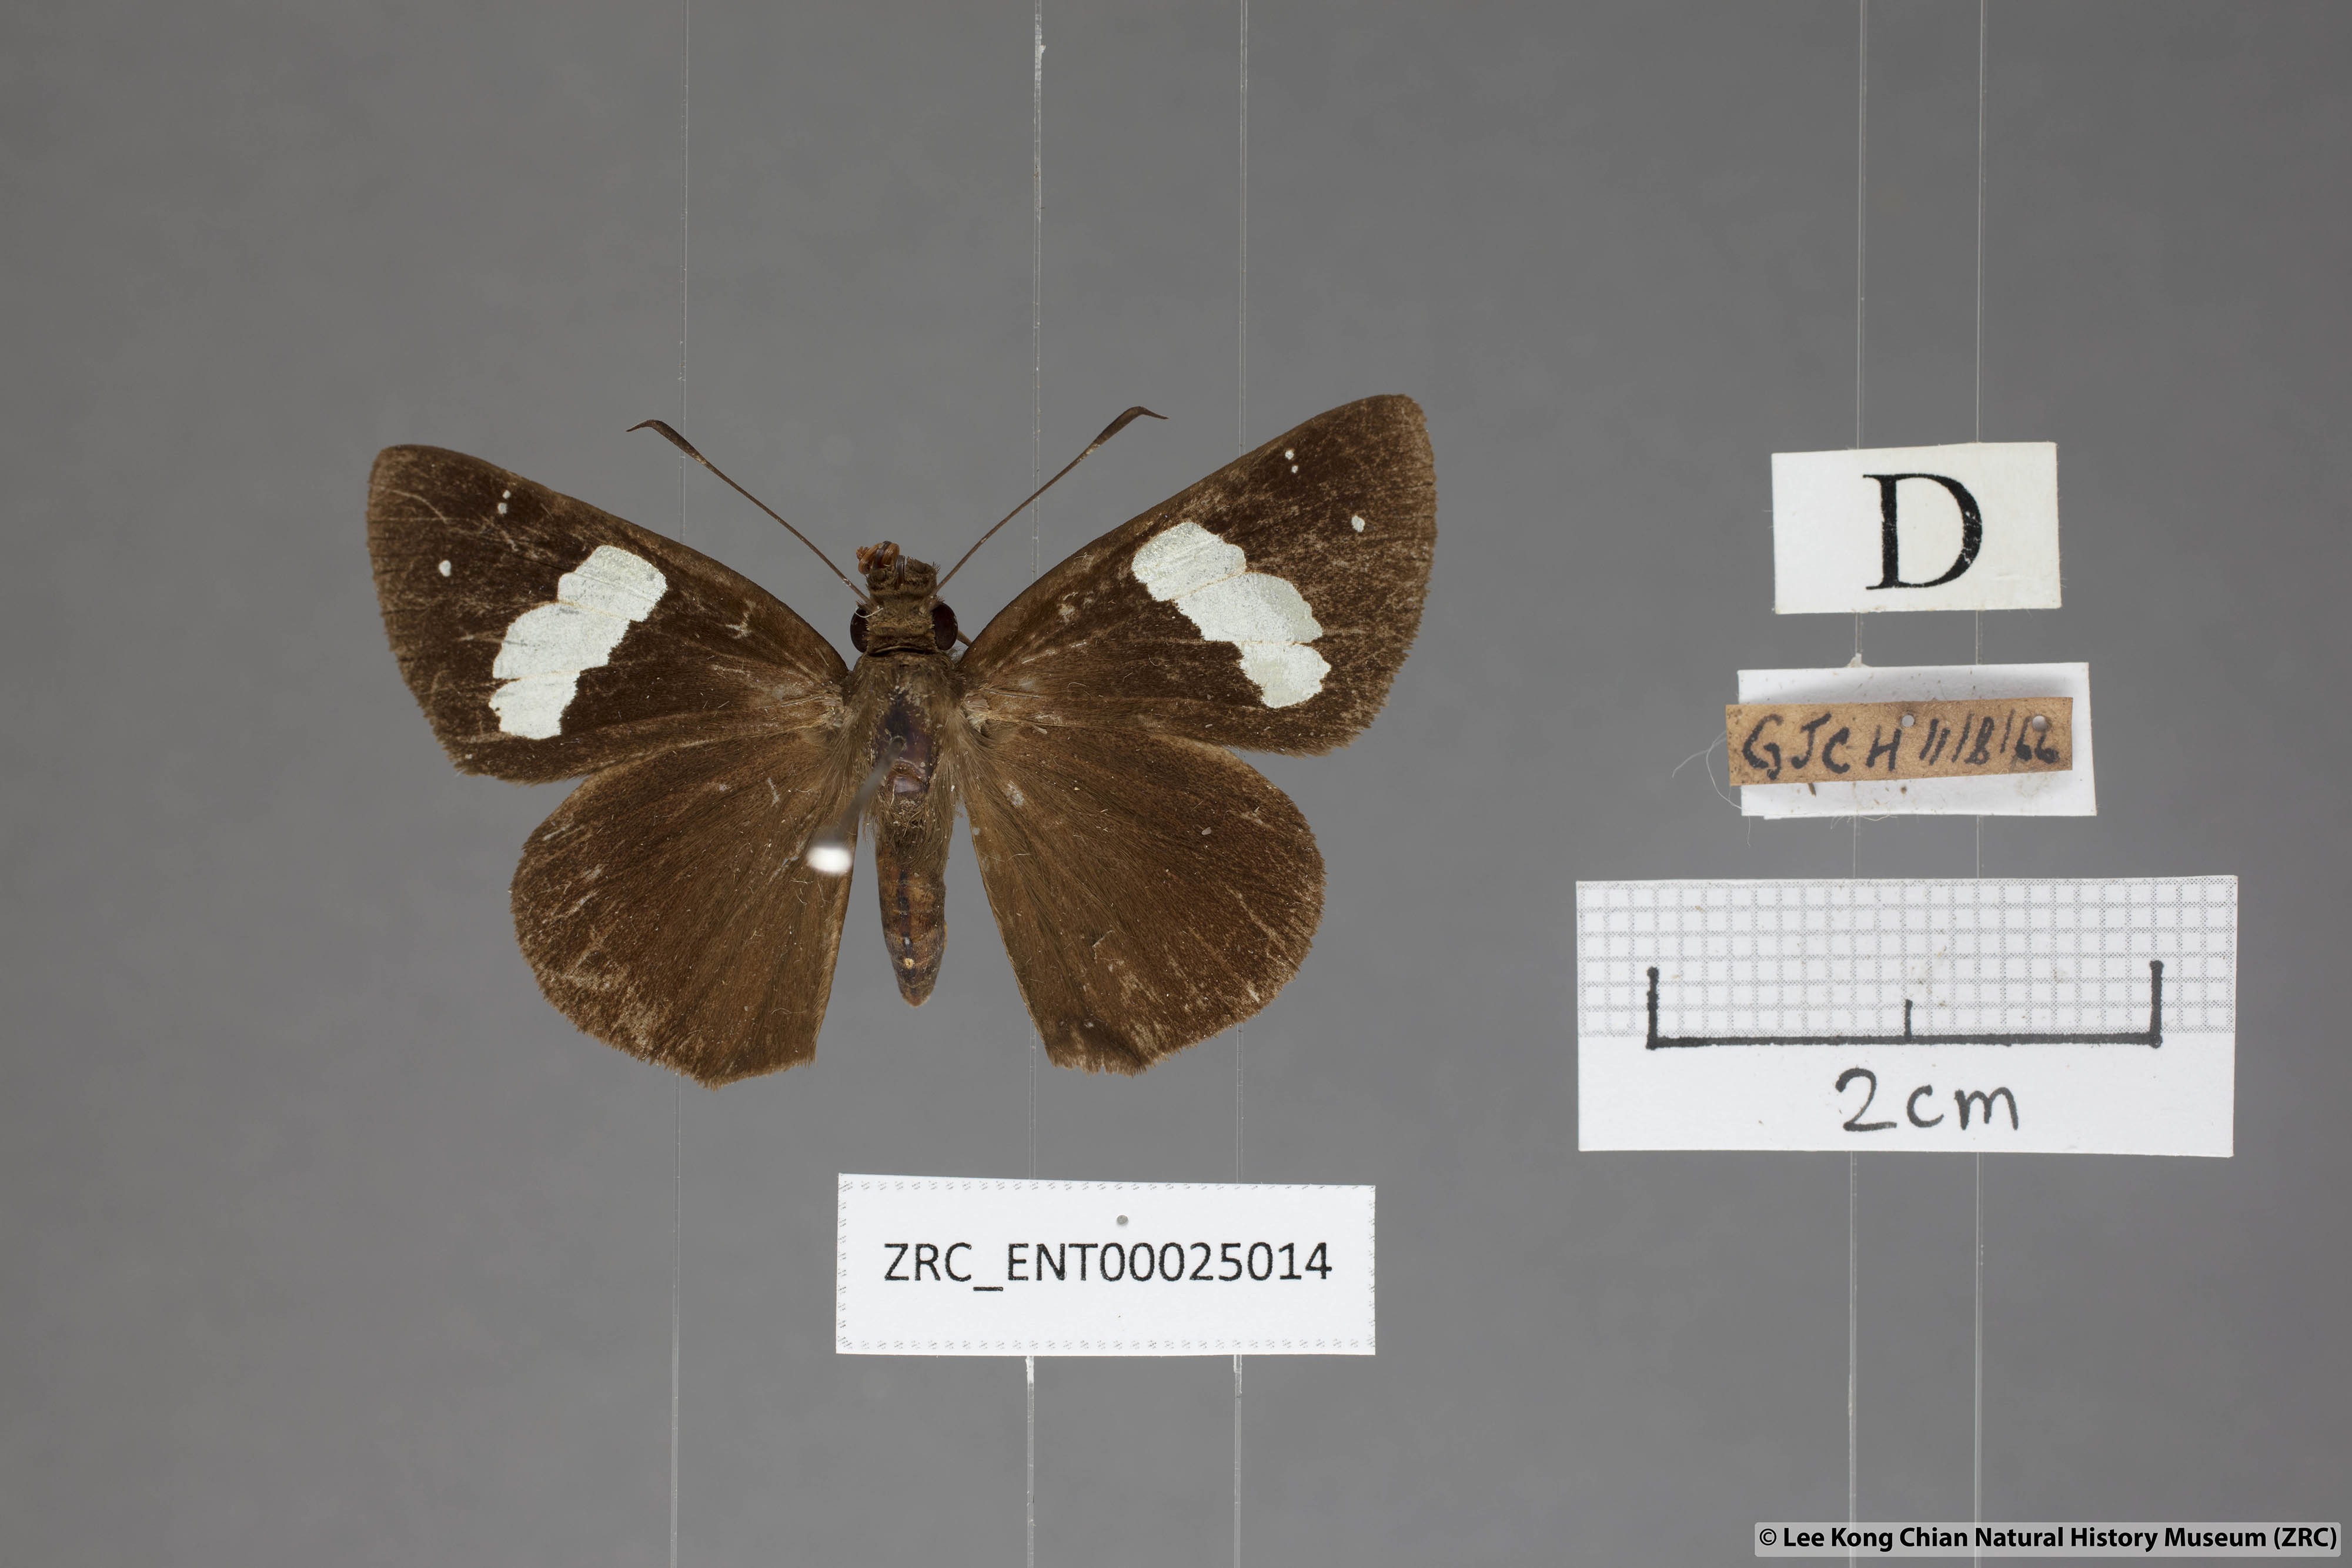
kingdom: Animalia
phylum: Arthropoda
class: Insecta
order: Lepidoptera
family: Hesperiidae
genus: Notocrypta
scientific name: Notocrypta feisthamelii
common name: Spotted demon
